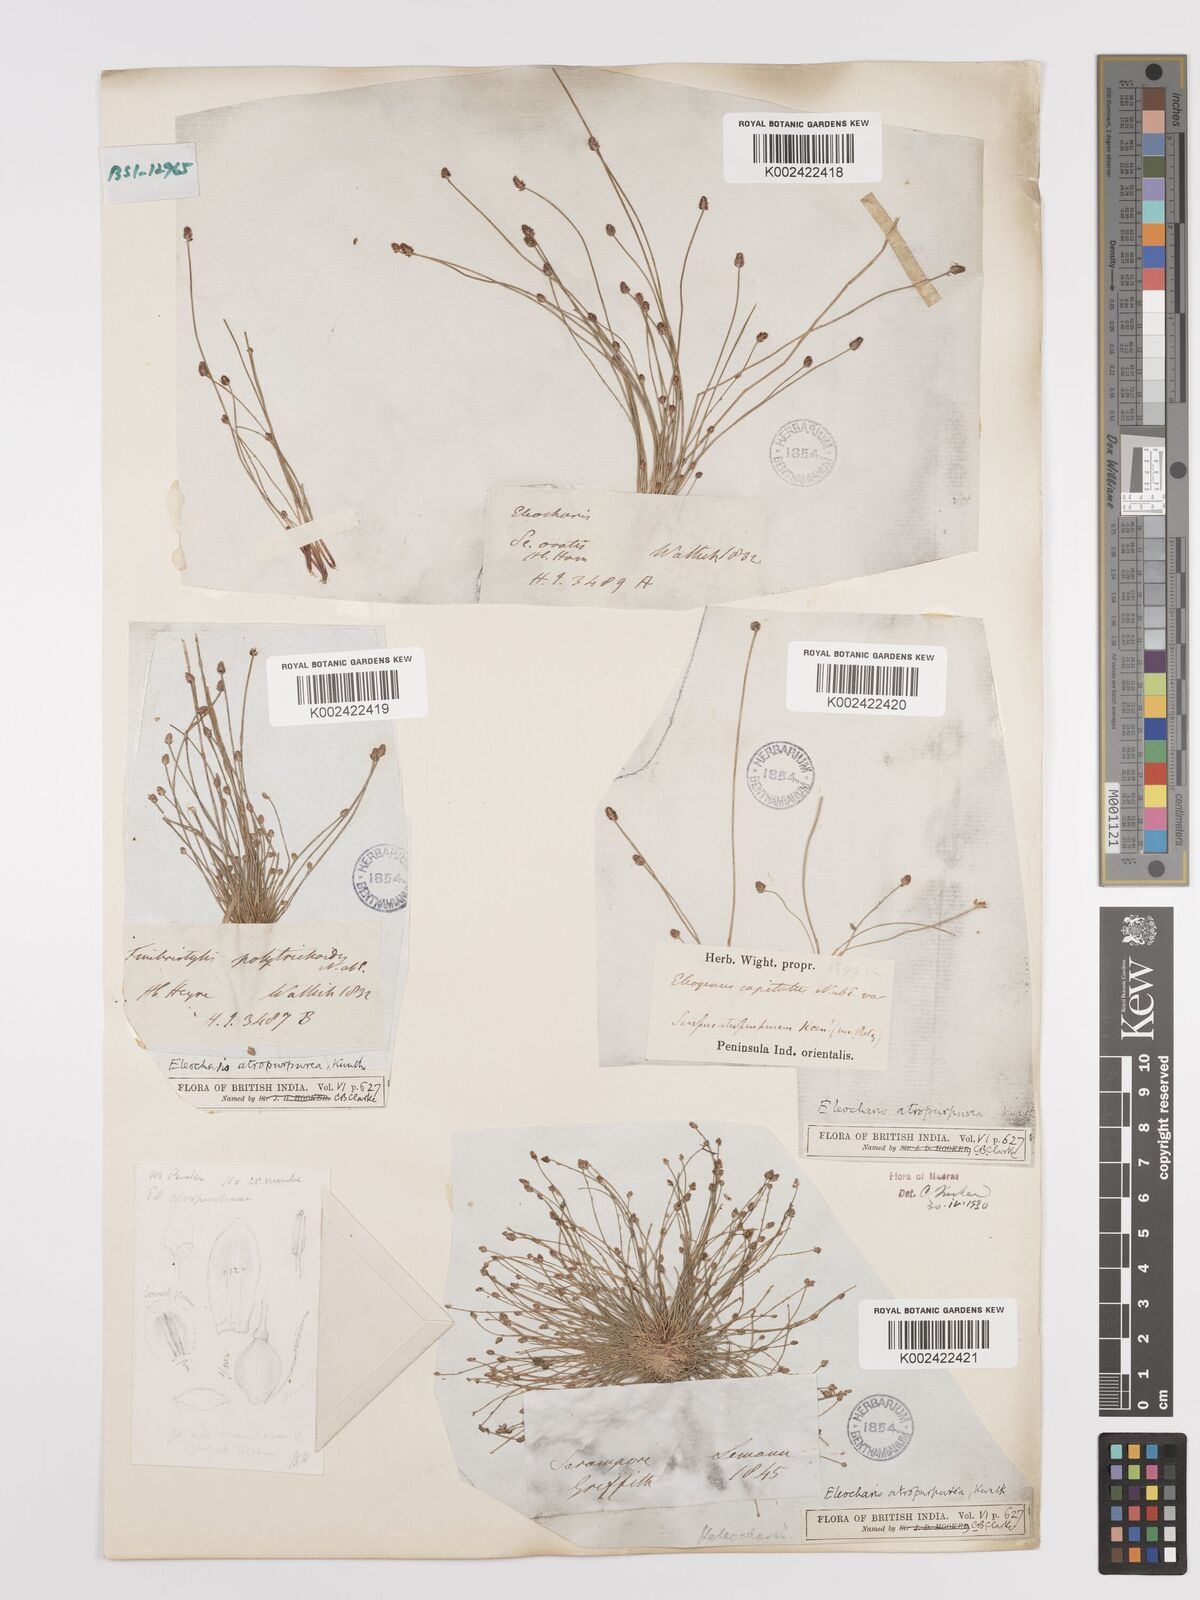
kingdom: Plantae
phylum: Tracheophyta
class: Liliopsida
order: Poales
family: Cyperaceae
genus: Eleocharis
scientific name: Eleocharis atropurpurea
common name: Purple spikerush
